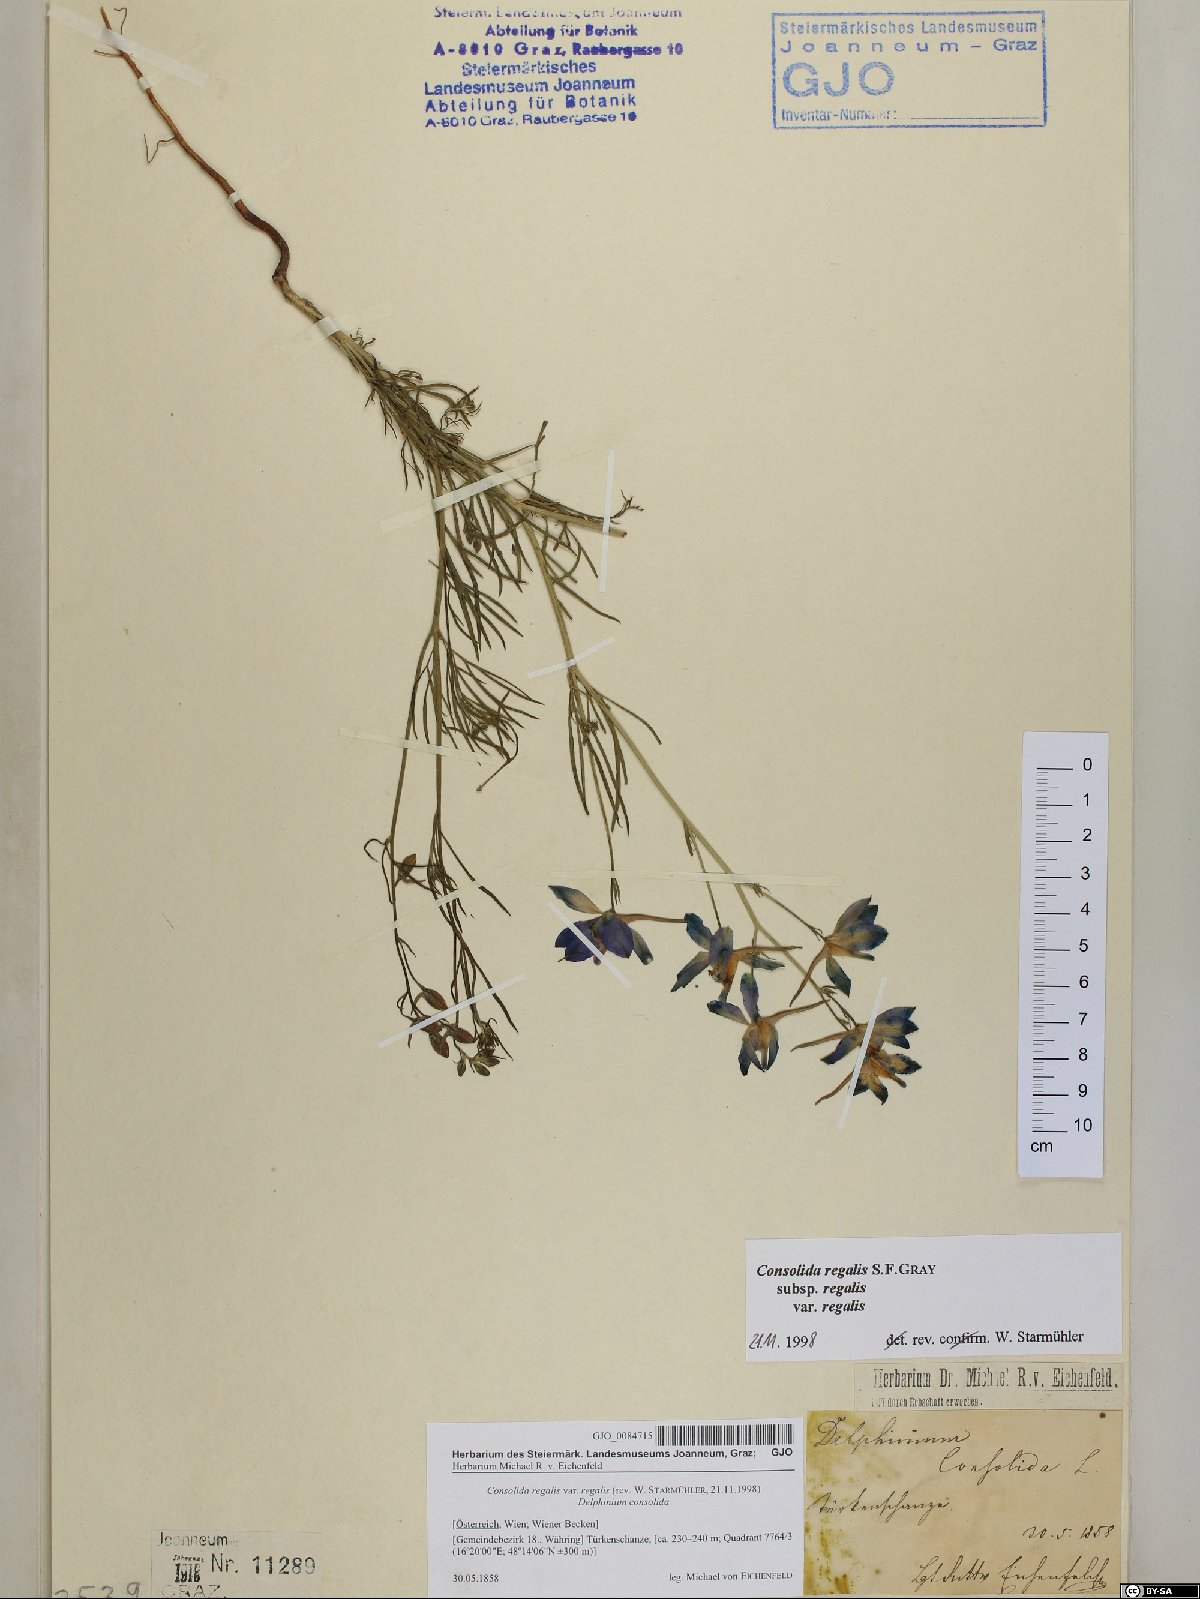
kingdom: Plantae
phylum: Tracheophyta
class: Magnoliopsida
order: Ranunculales
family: Ranunculaceae
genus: Delphinium
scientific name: Delphinium consolida
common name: Branching larkspur
